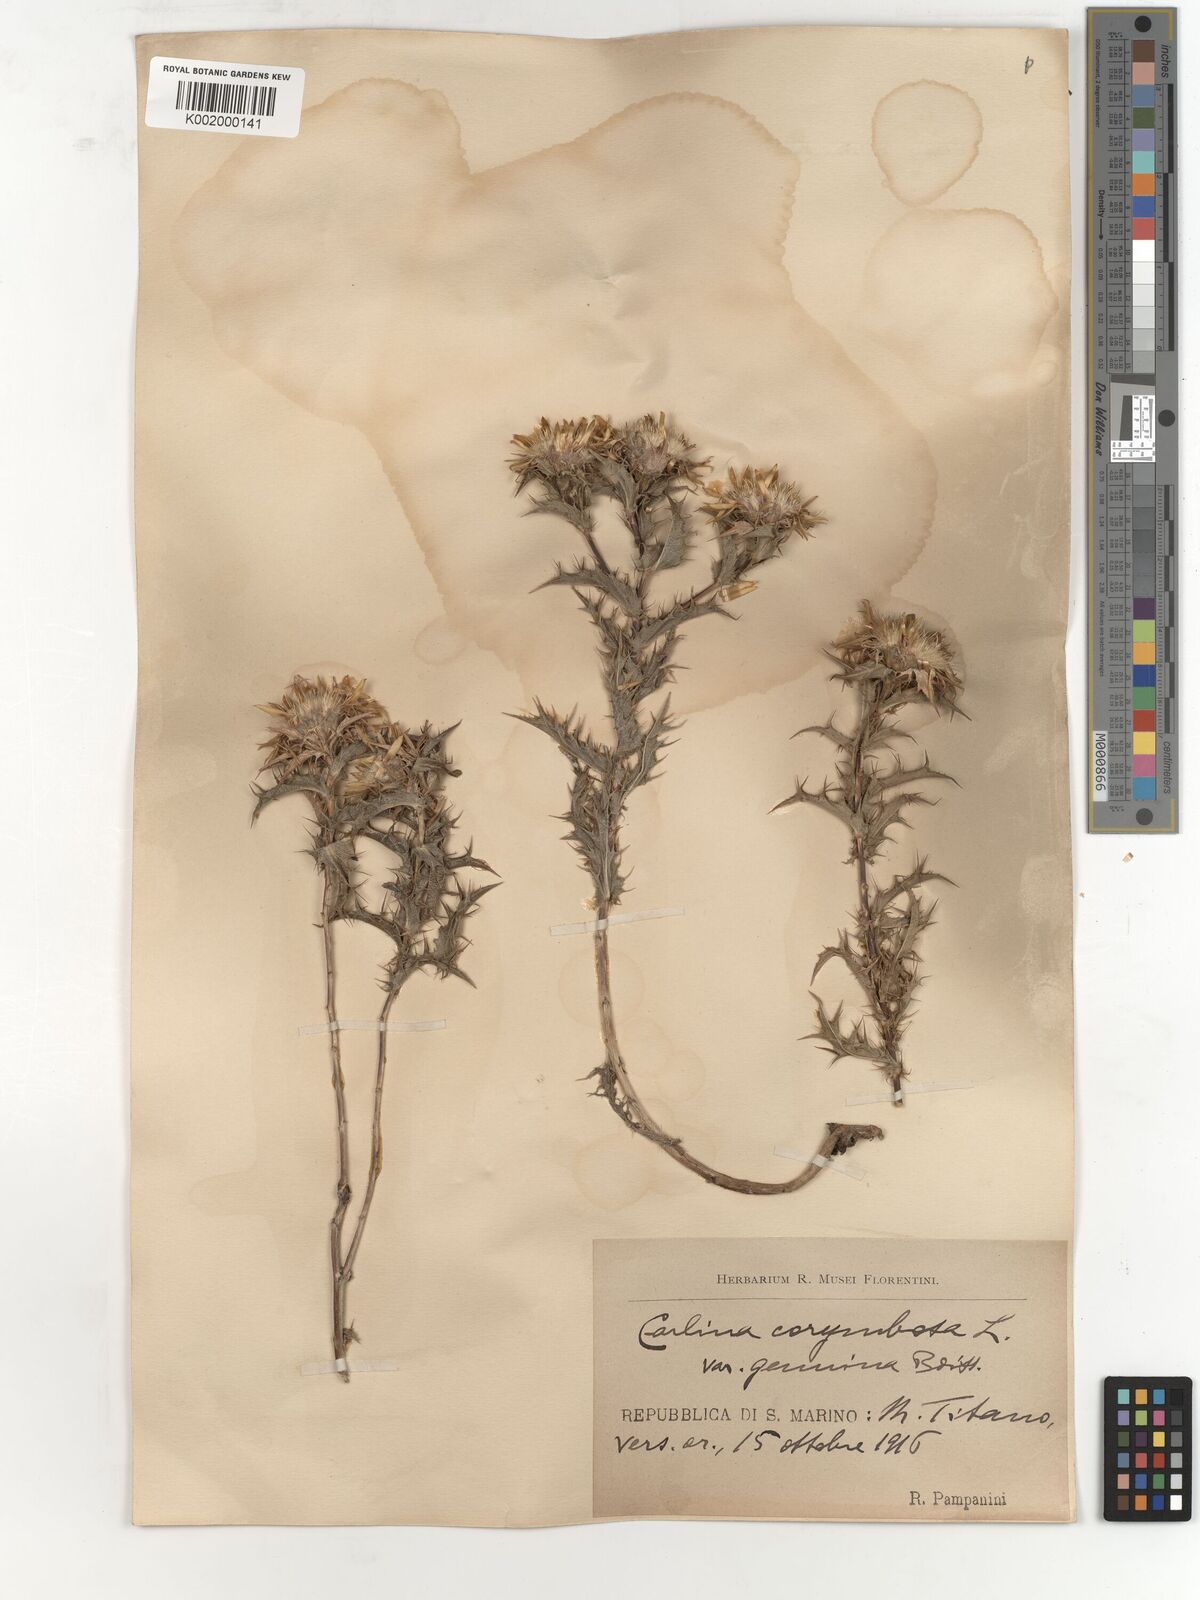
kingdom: Plantae
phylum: Tracheophyta
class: Magnoliopsida
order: Asterales
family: Asteraceae
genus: Carlina
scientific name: Carlina corymbosa
